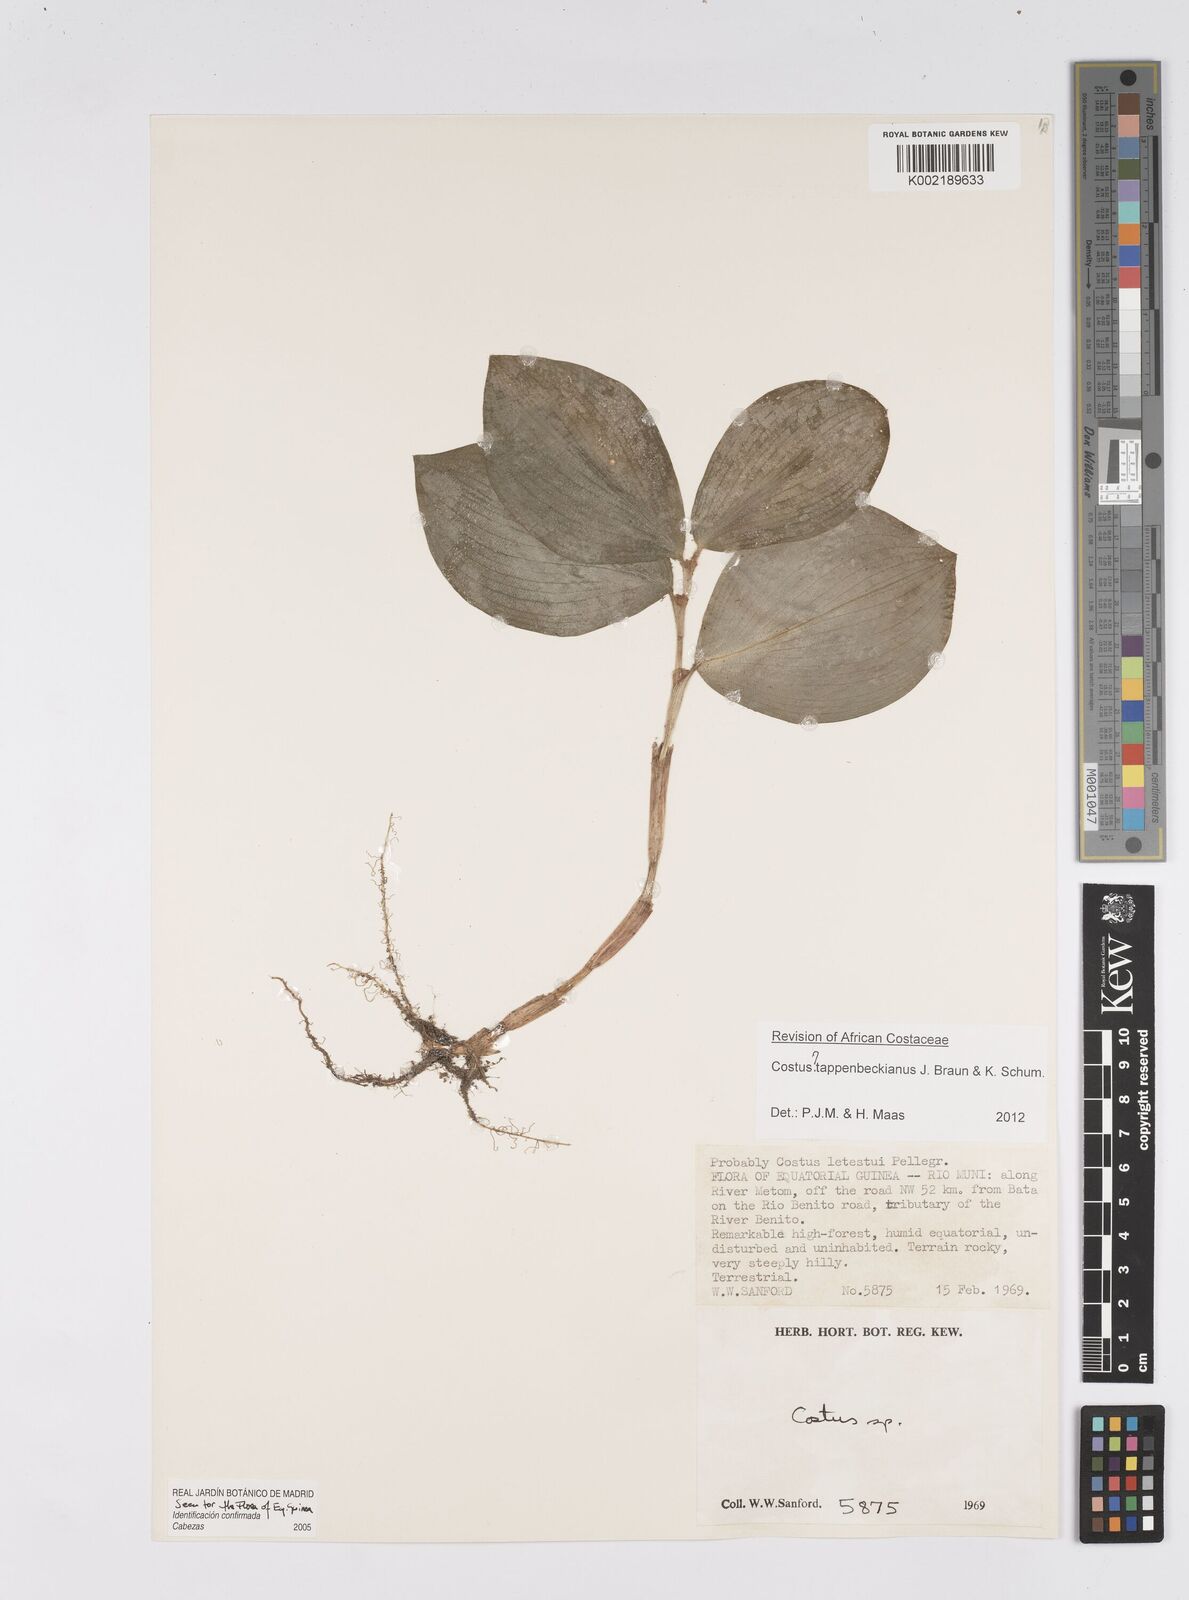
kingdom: Plantae
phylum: Tracheophyta
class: Liliopsida
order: Zingiberales
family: Costaceae
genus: Costus
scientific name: Costus tappenbeckianus
